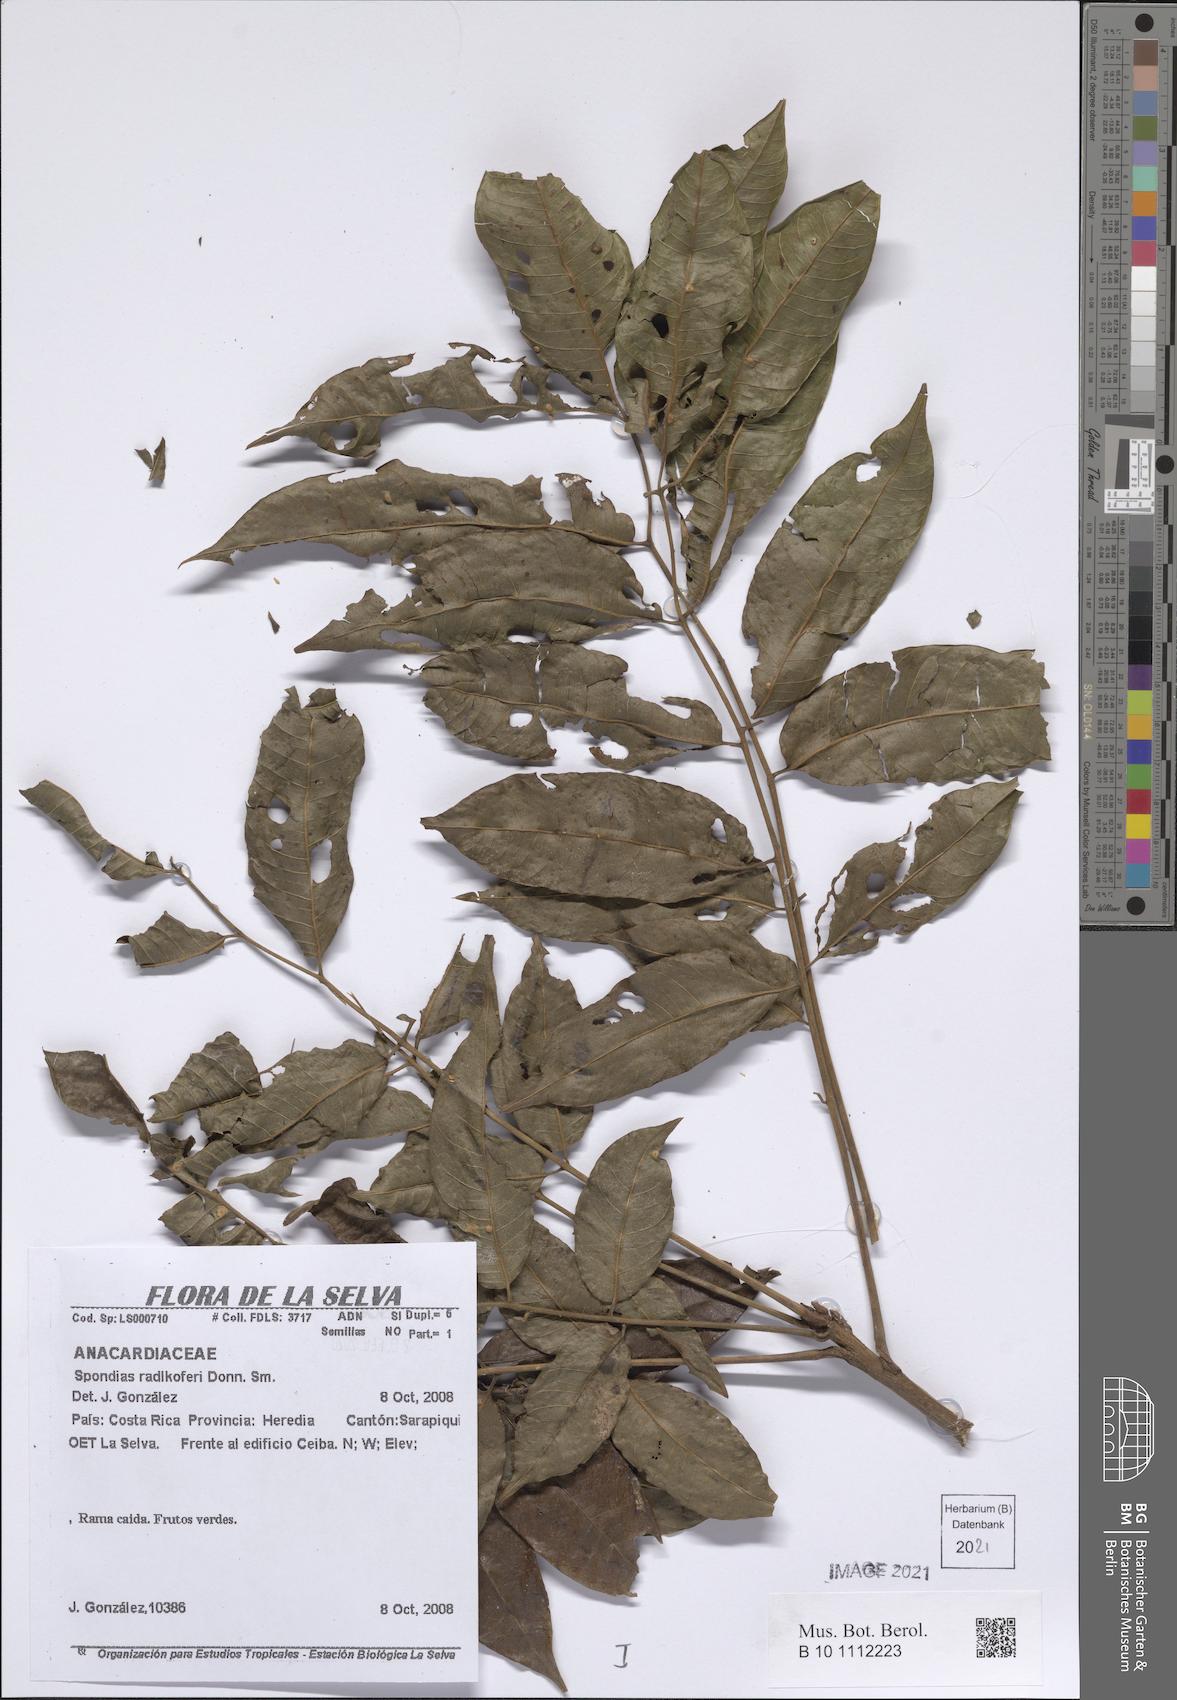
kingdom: Plantae
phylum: Tracheophyta
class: Magnoliopsida
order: Sapindales
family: Anacardiaceae
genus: Spondias
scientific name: Spondias radlkoferi
